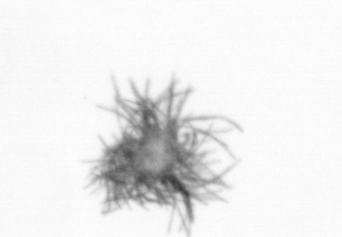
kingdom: Bacteria
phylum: Cyanobacteria
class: Cyanobacteriia
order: Cyanobacteriales
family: Microcoleaceae
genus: Trichodesmium
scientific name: Trichodesmium
